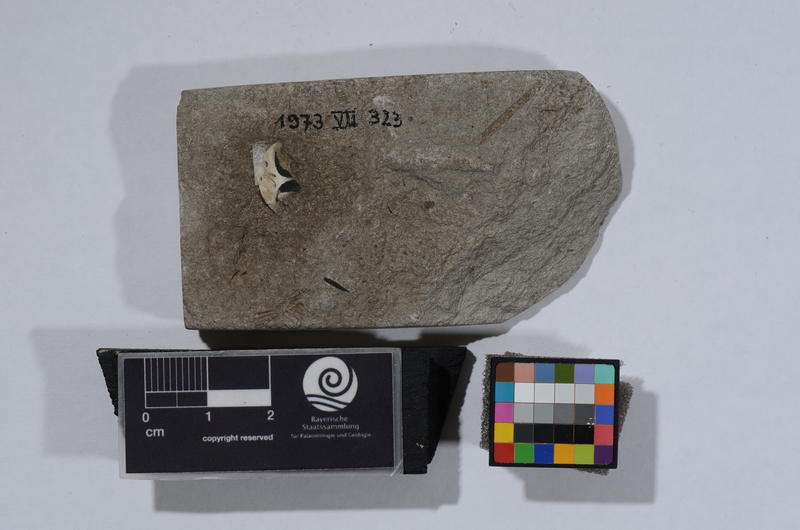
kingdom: Animalia
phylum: Chordata
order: Clupeiformes
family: Clupeidae
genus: Sprattus
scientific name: Sprattus Meletta sardinites
